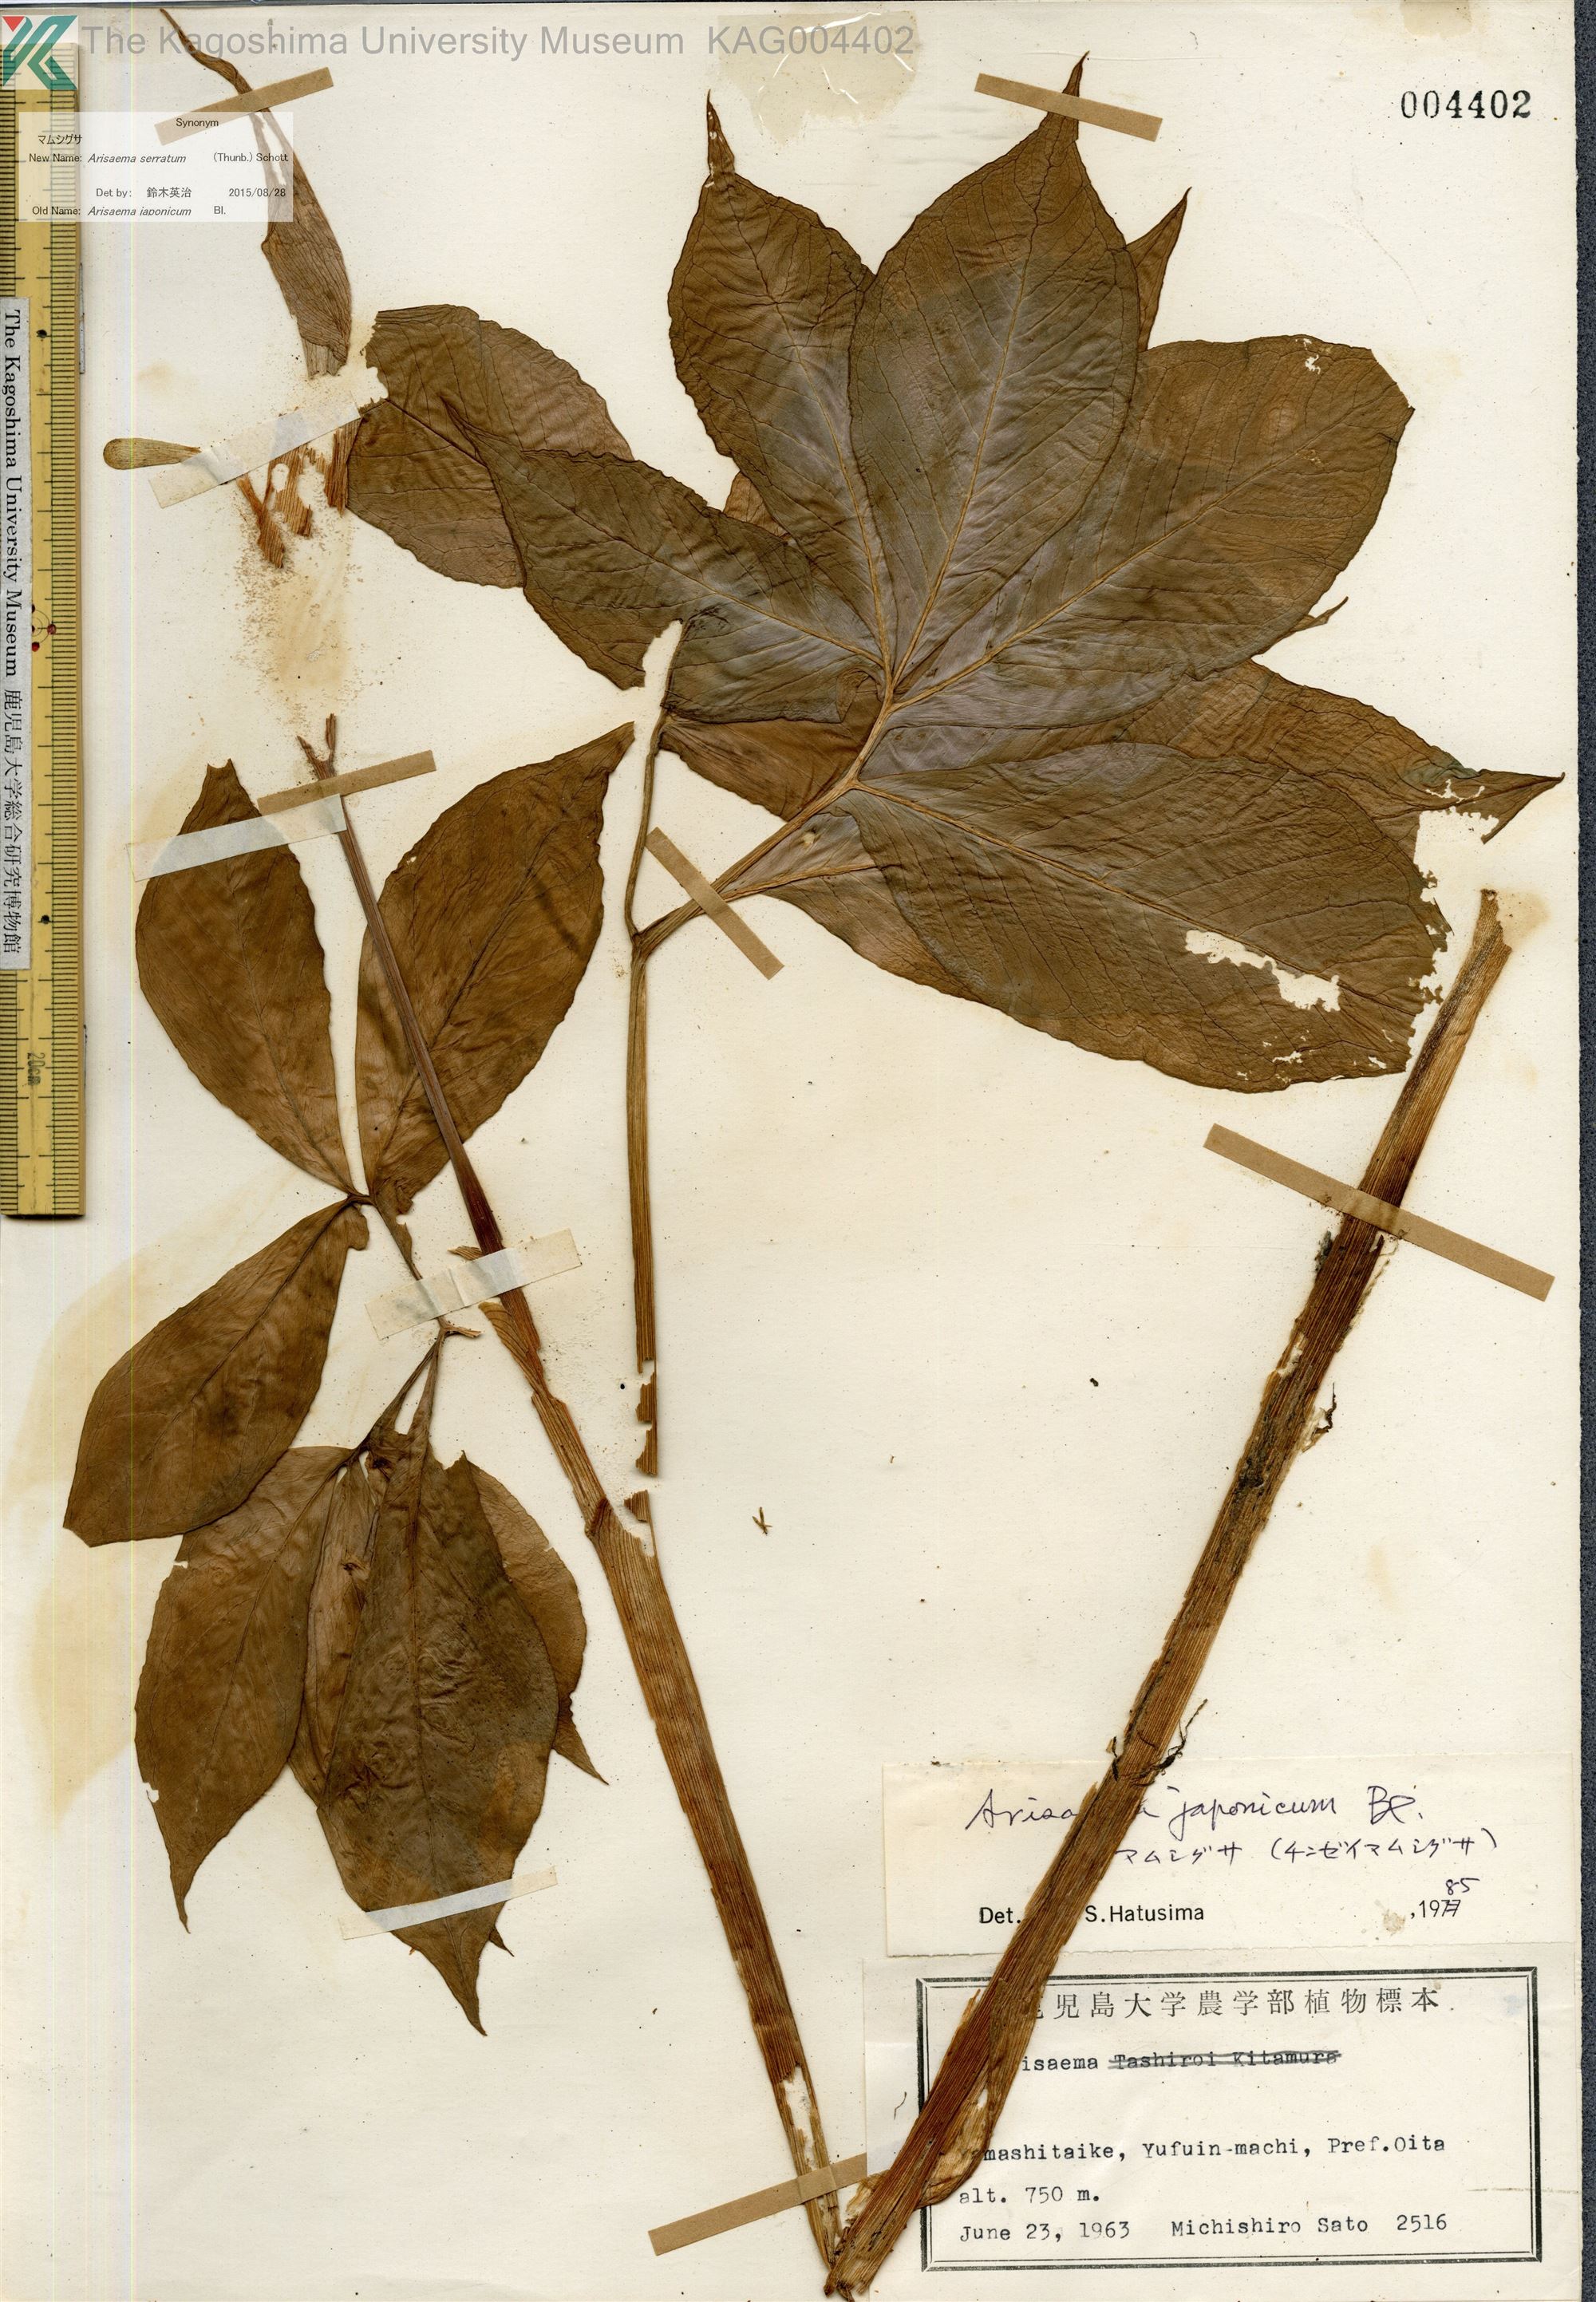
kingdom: Plantae
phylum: Tracheophyta
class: Liliopsida
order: Alismatales
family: Araceae
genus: Arisaema
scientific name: Arisaema serratum
